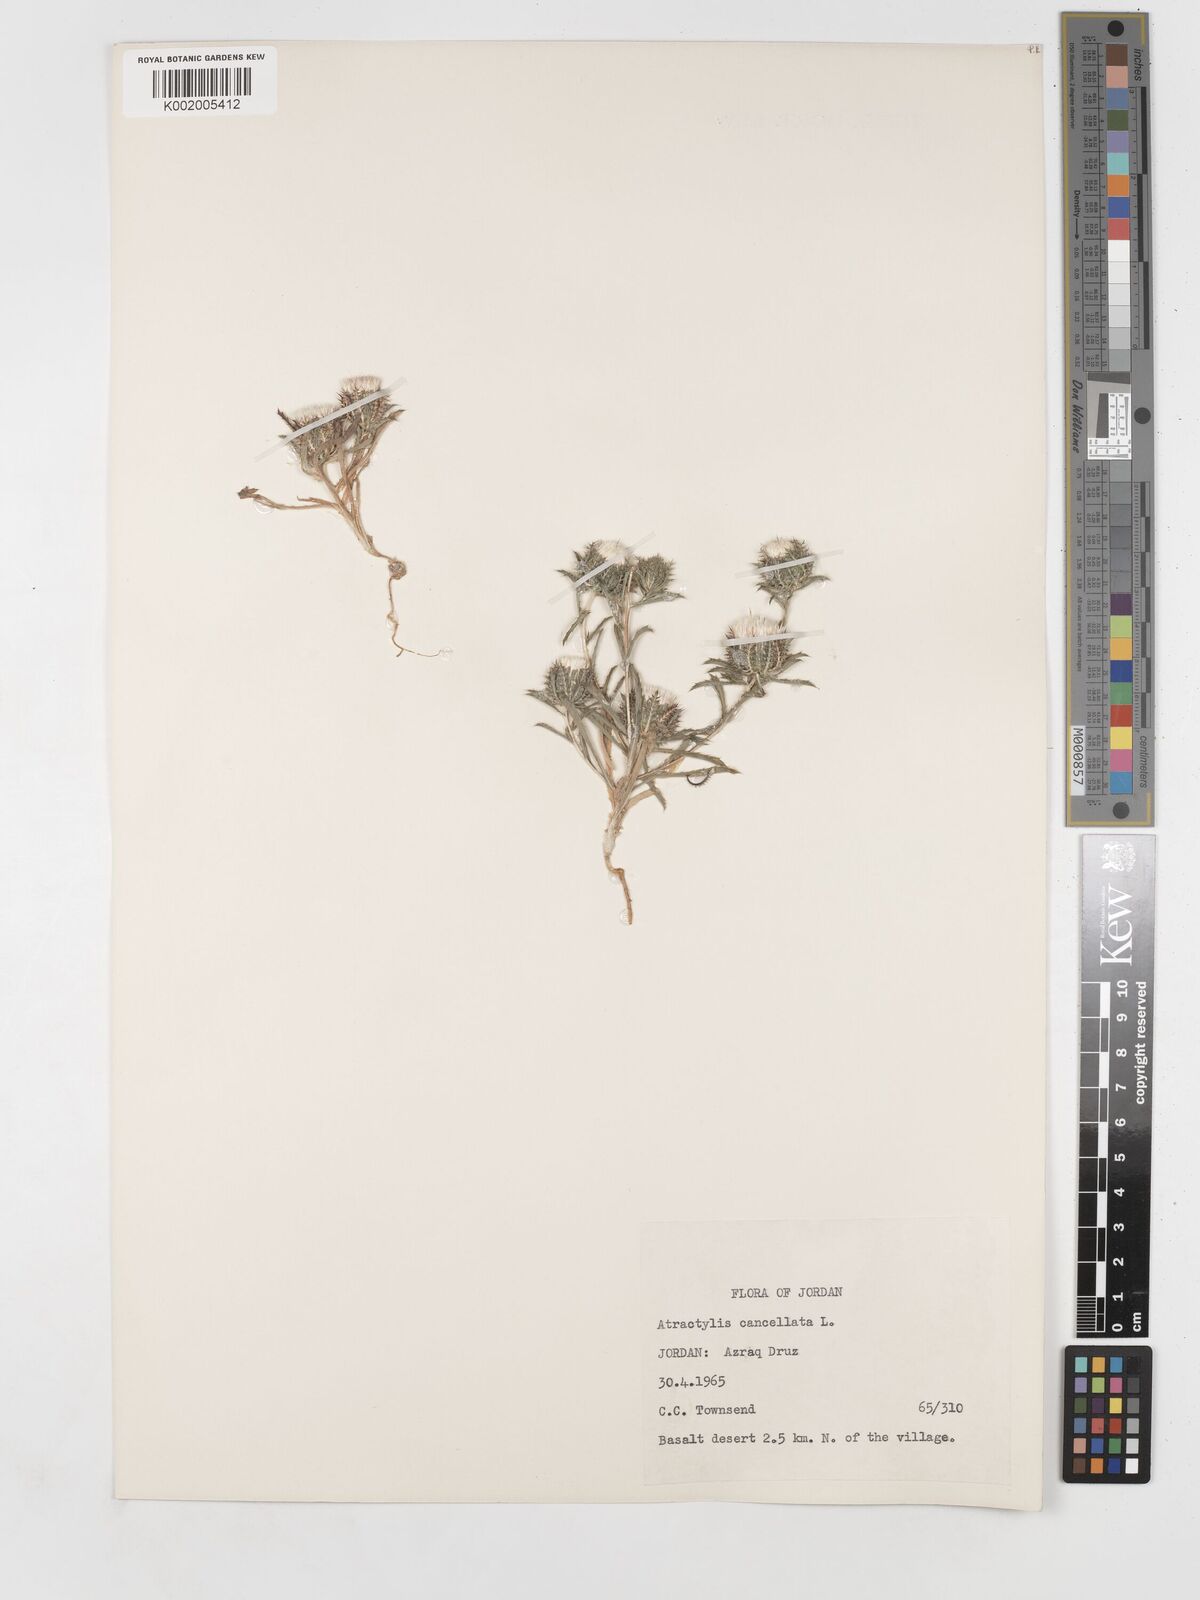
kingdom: Plantae
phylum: Tracheophyta
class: Magnoliopsida
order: Asterales
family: Asteraceae
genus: Atractylis
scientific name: Atractylis cancellata
